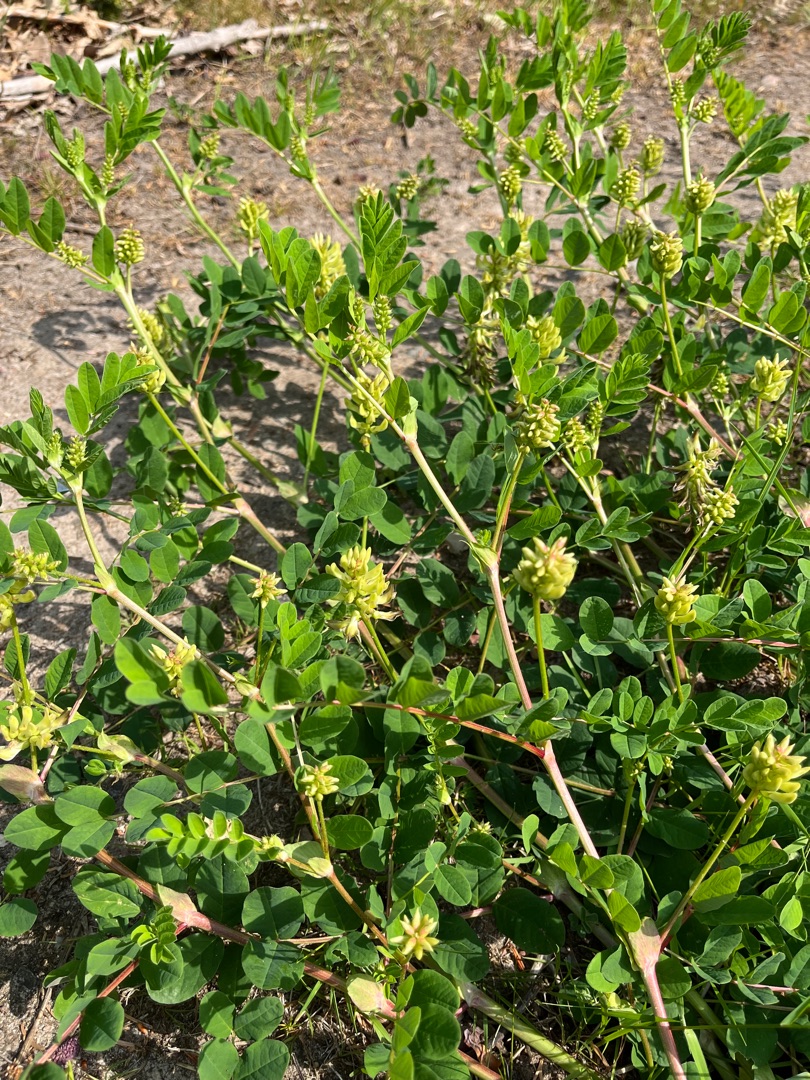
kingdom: Plantae
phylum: Tracheophyta
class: Magnoliopsida
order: Fabales
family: Fabaceae
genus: Astragalus
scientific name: Astragalus glycyphyllos
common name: Sød astragel
